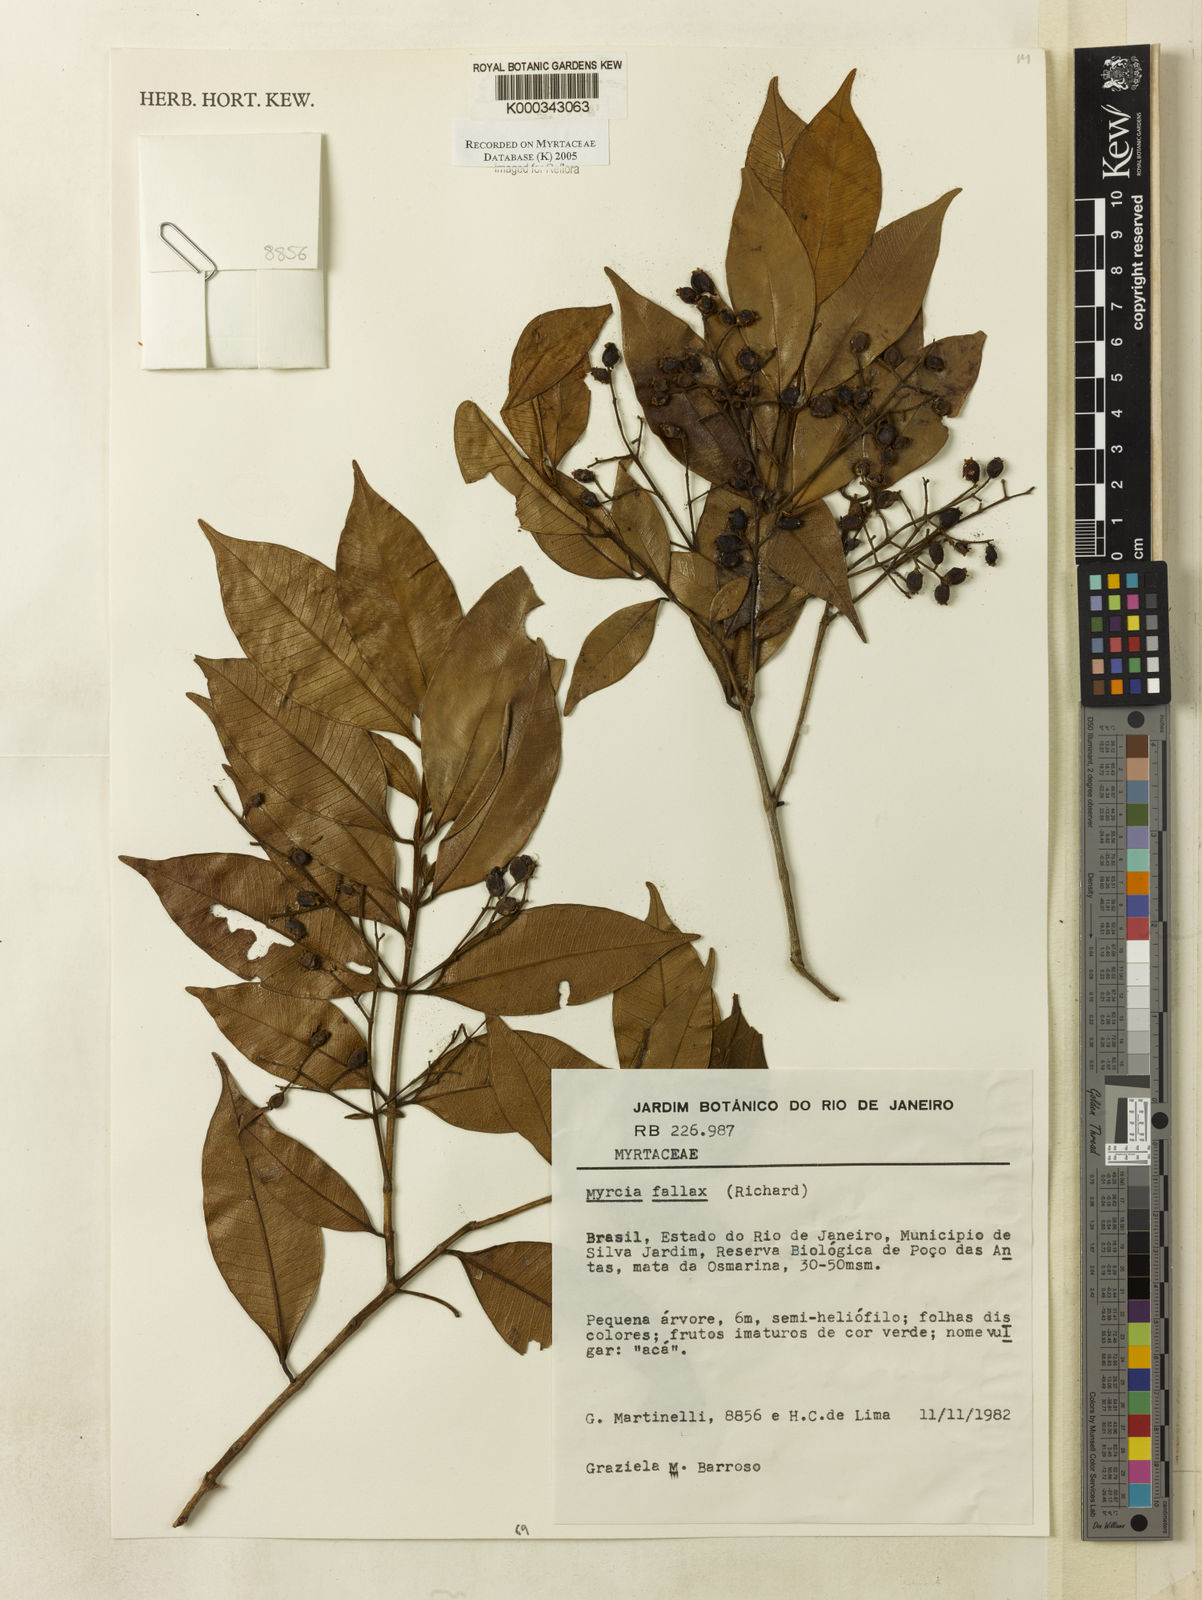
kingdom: Plantae
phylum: Tracheophyta
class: Magnoliopsida
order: Myrtales
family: Myrtaceae
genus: Myrcia
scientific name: Myrcia splendens
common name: Surinam cherry
